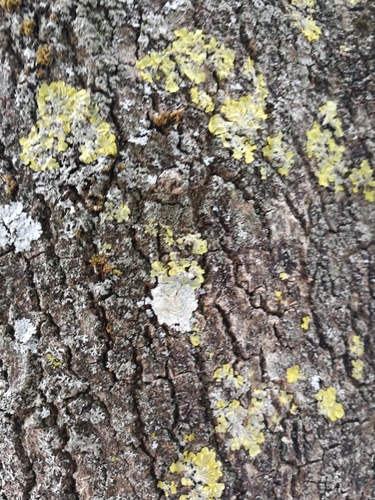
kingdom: Fungi
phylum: Ascomycota
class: Lecanoromycetes
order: Caliciales
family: Caliciaceae
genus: Diploicia
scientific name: Diploicia canescens
